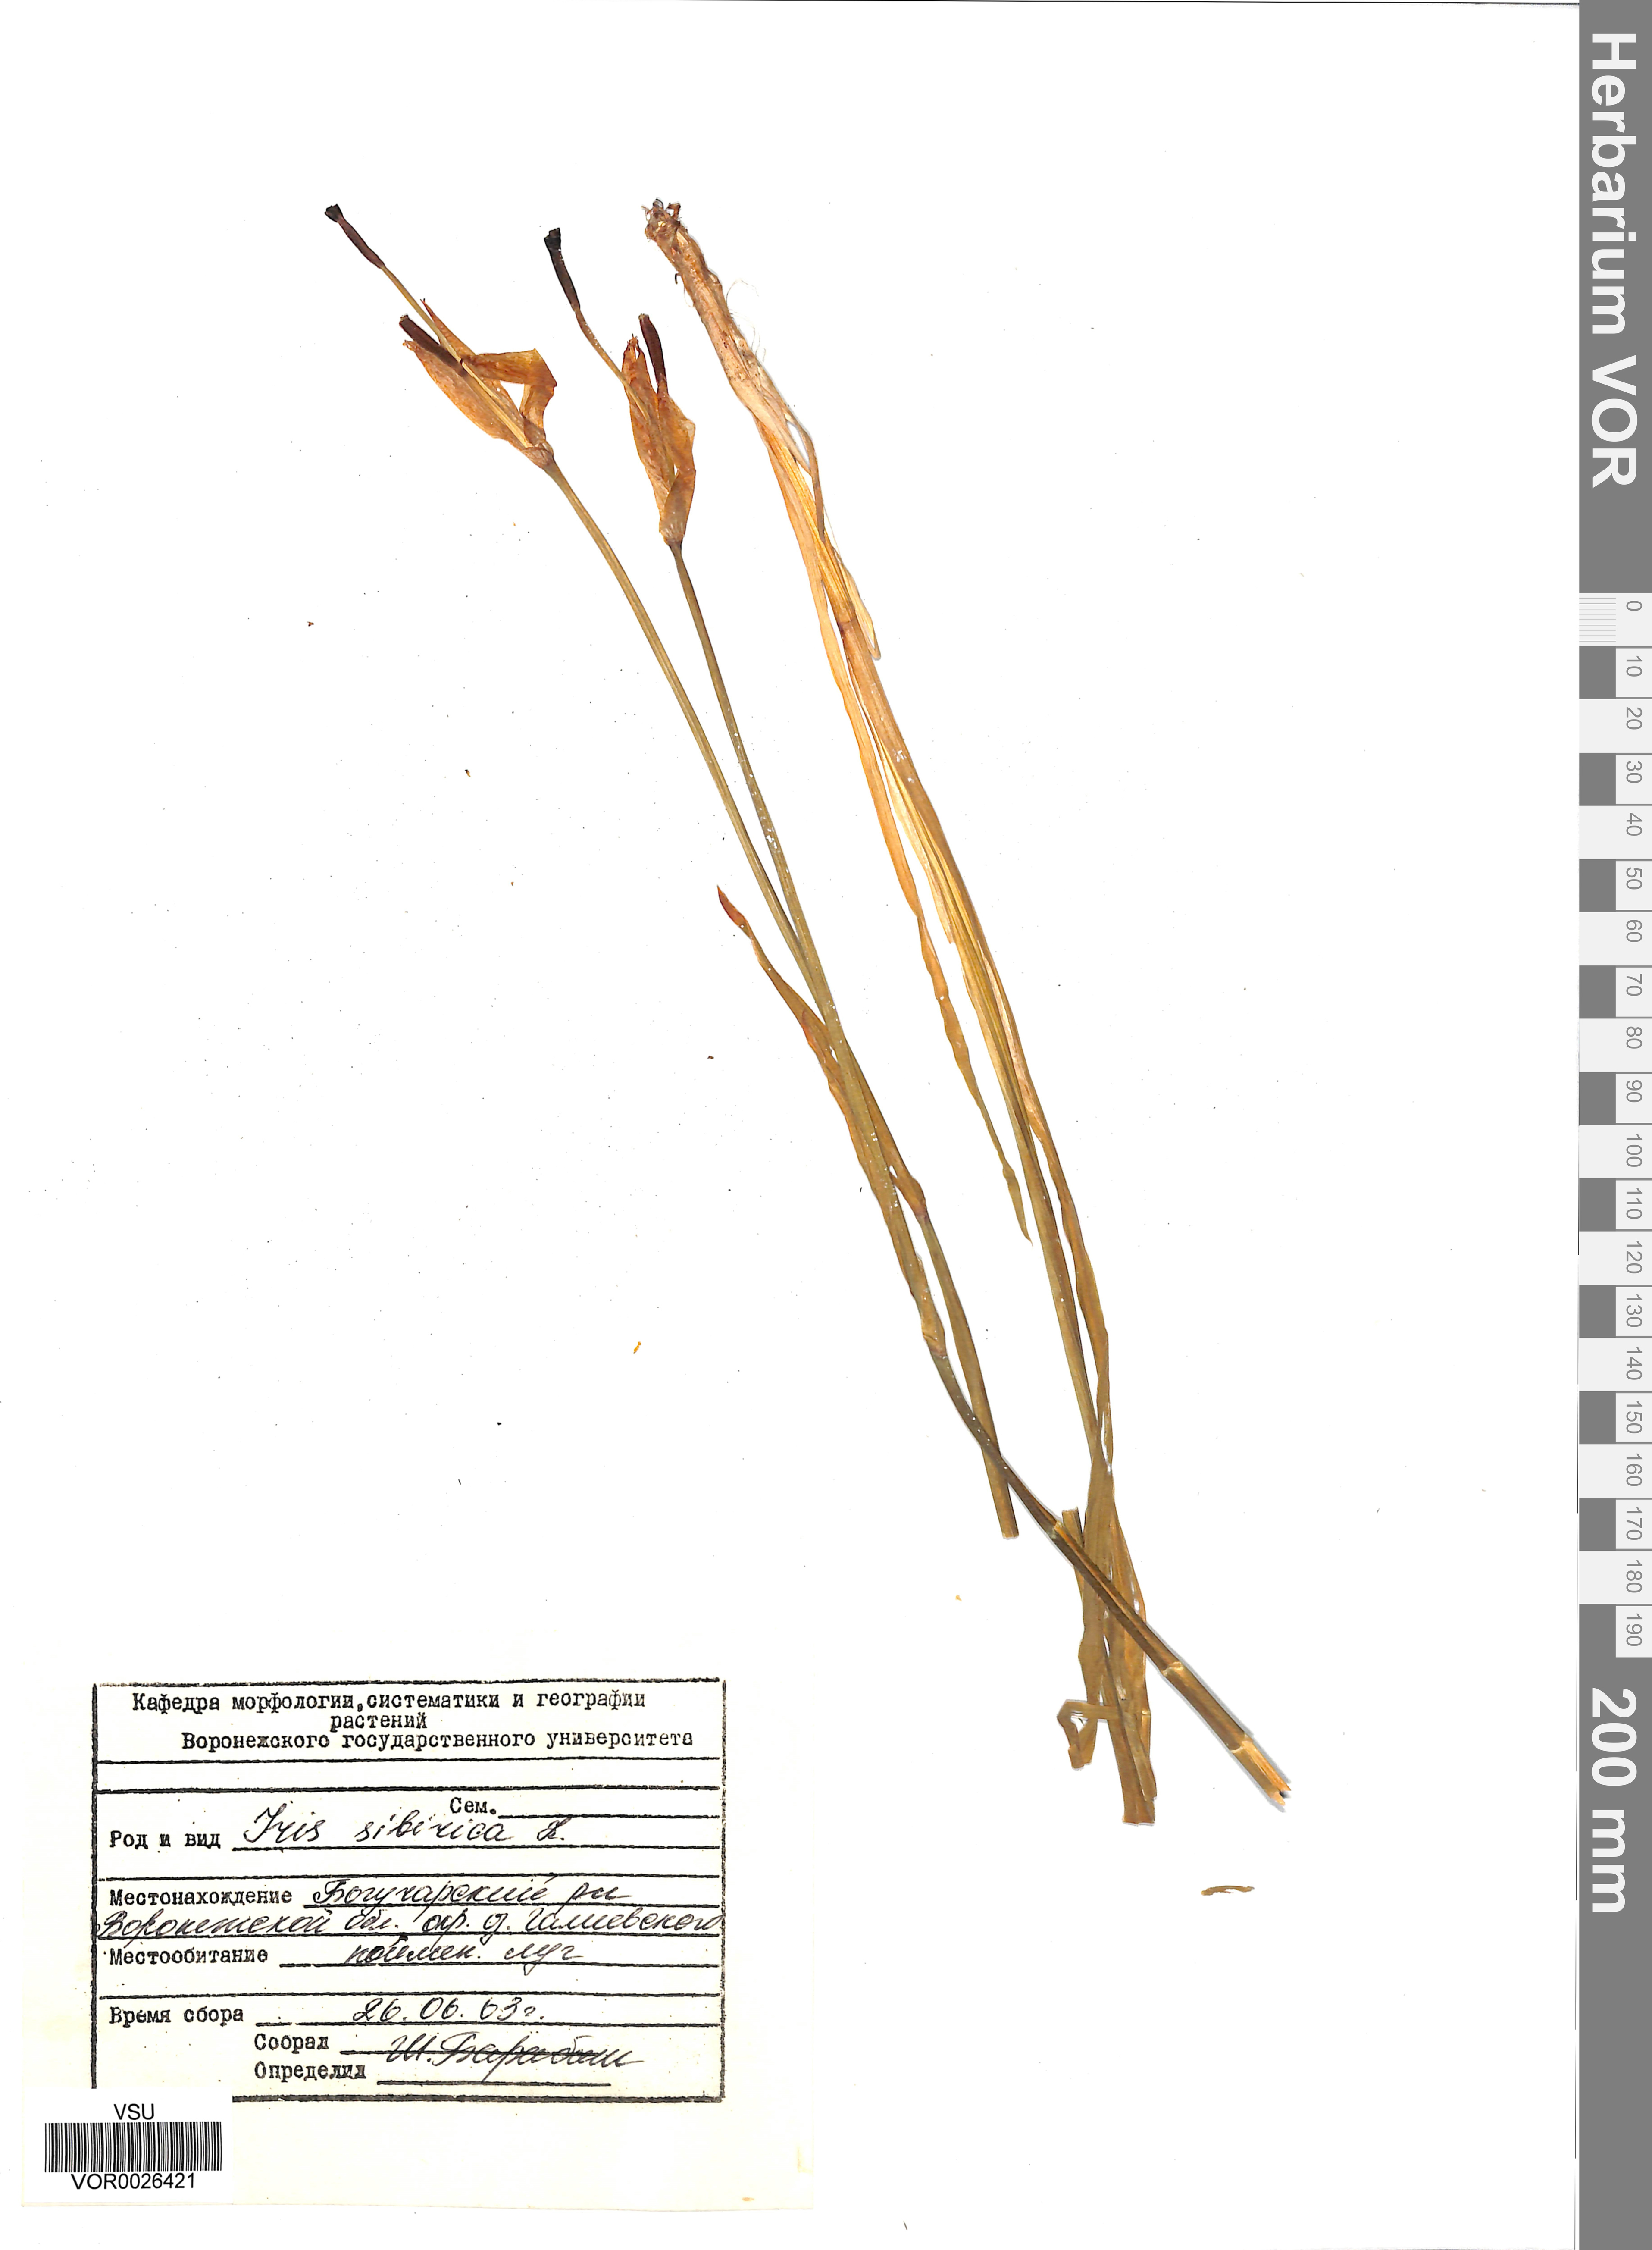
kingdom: Plantae
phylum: Tracheophyta
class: Liliopsida
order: Asparagales
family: Iridaceae
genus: Iris
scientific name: Iris sibirica
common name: Siberian iris
